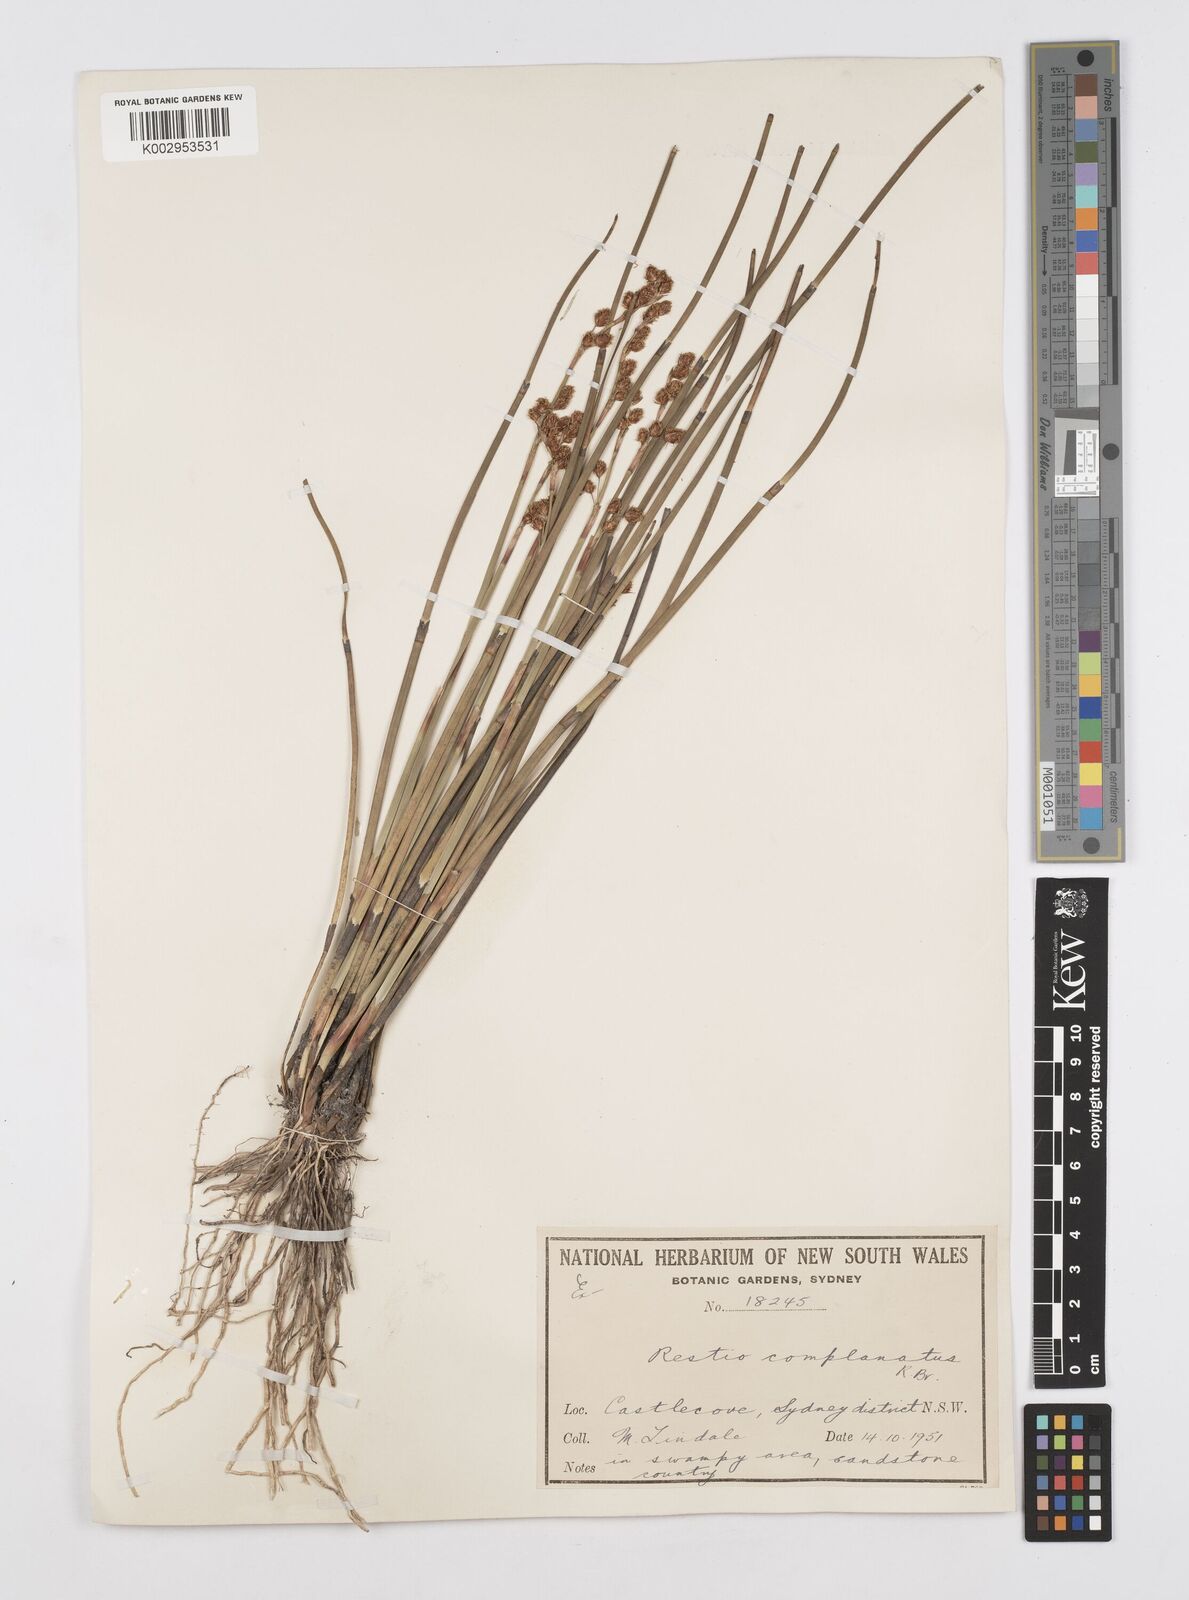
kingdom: Plantae
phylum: Tracheophyta
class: Liliopsida
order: Poales
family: Restionaceae
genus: Eurychorda
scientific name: Eurychorda complanata
